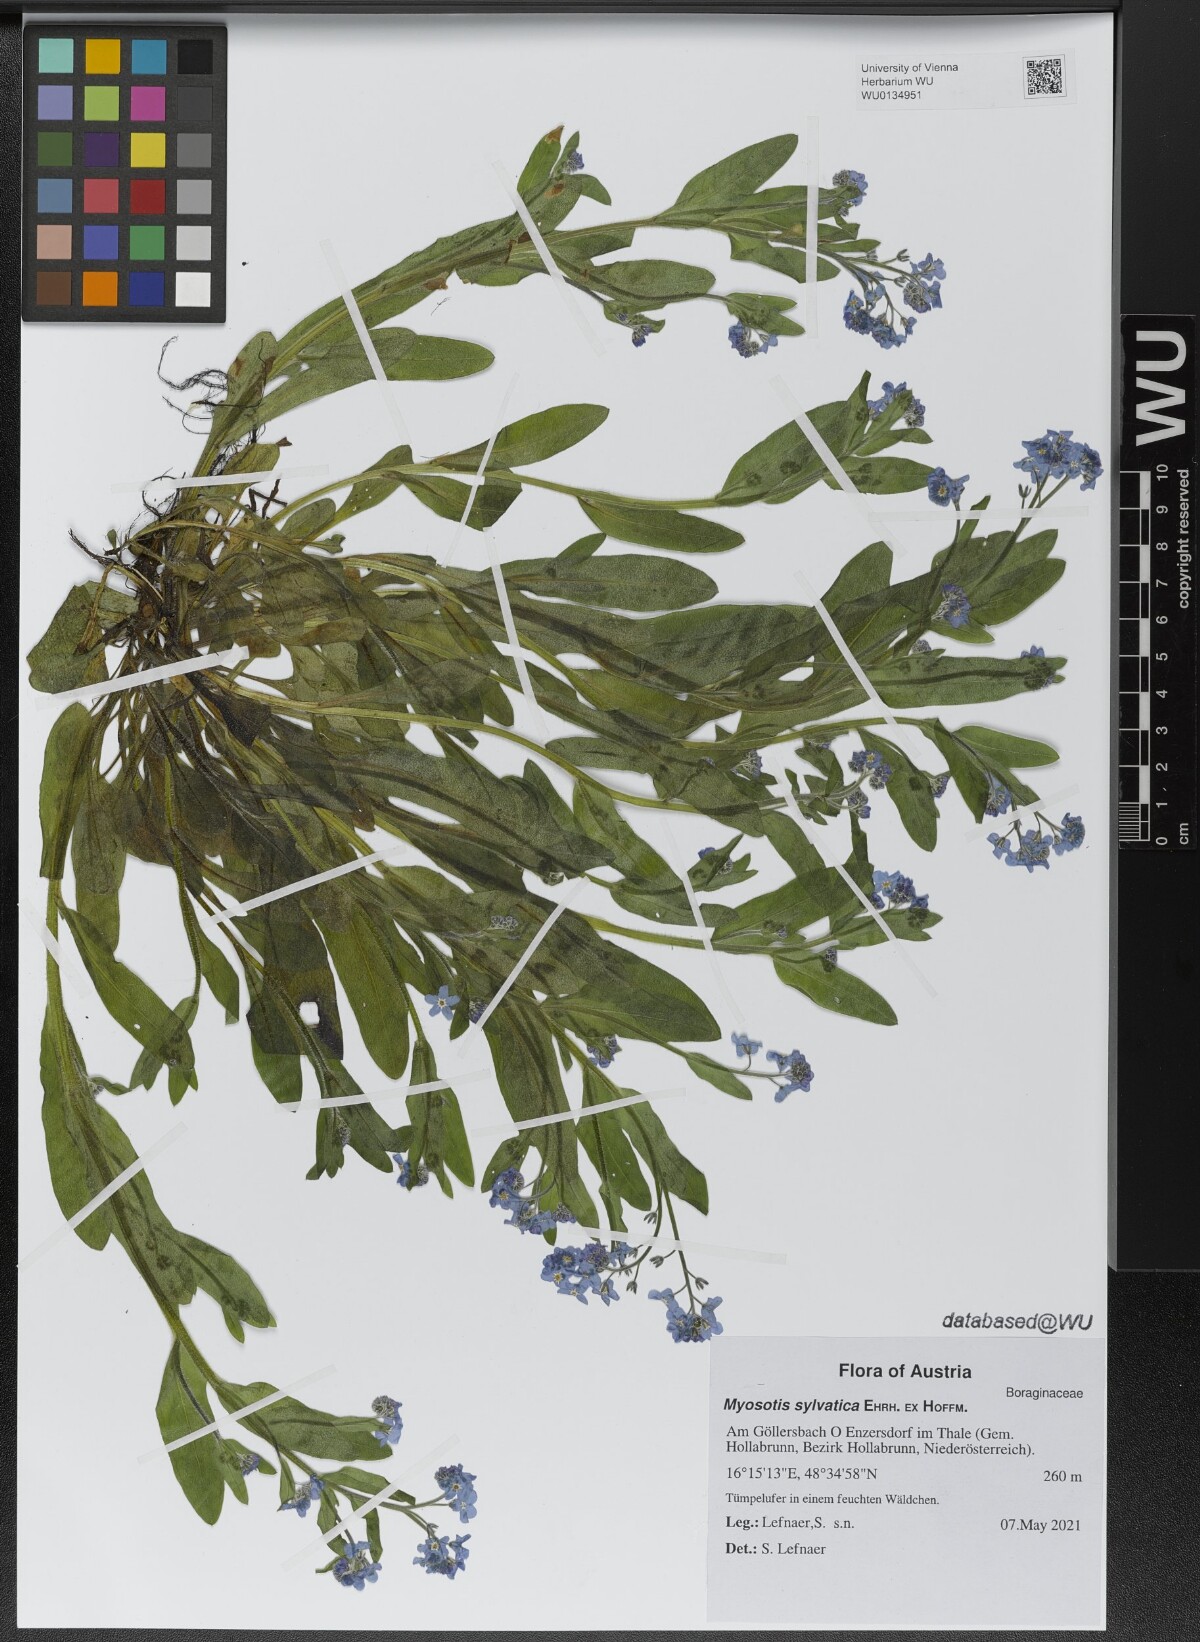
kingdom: Plantae
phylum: Tracheophyta
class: Magnoliopsida
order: Boraginales
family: Boraginaceae
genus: Myosotis
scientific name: Myosotis sylvatica
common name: Wood forget-me-not
